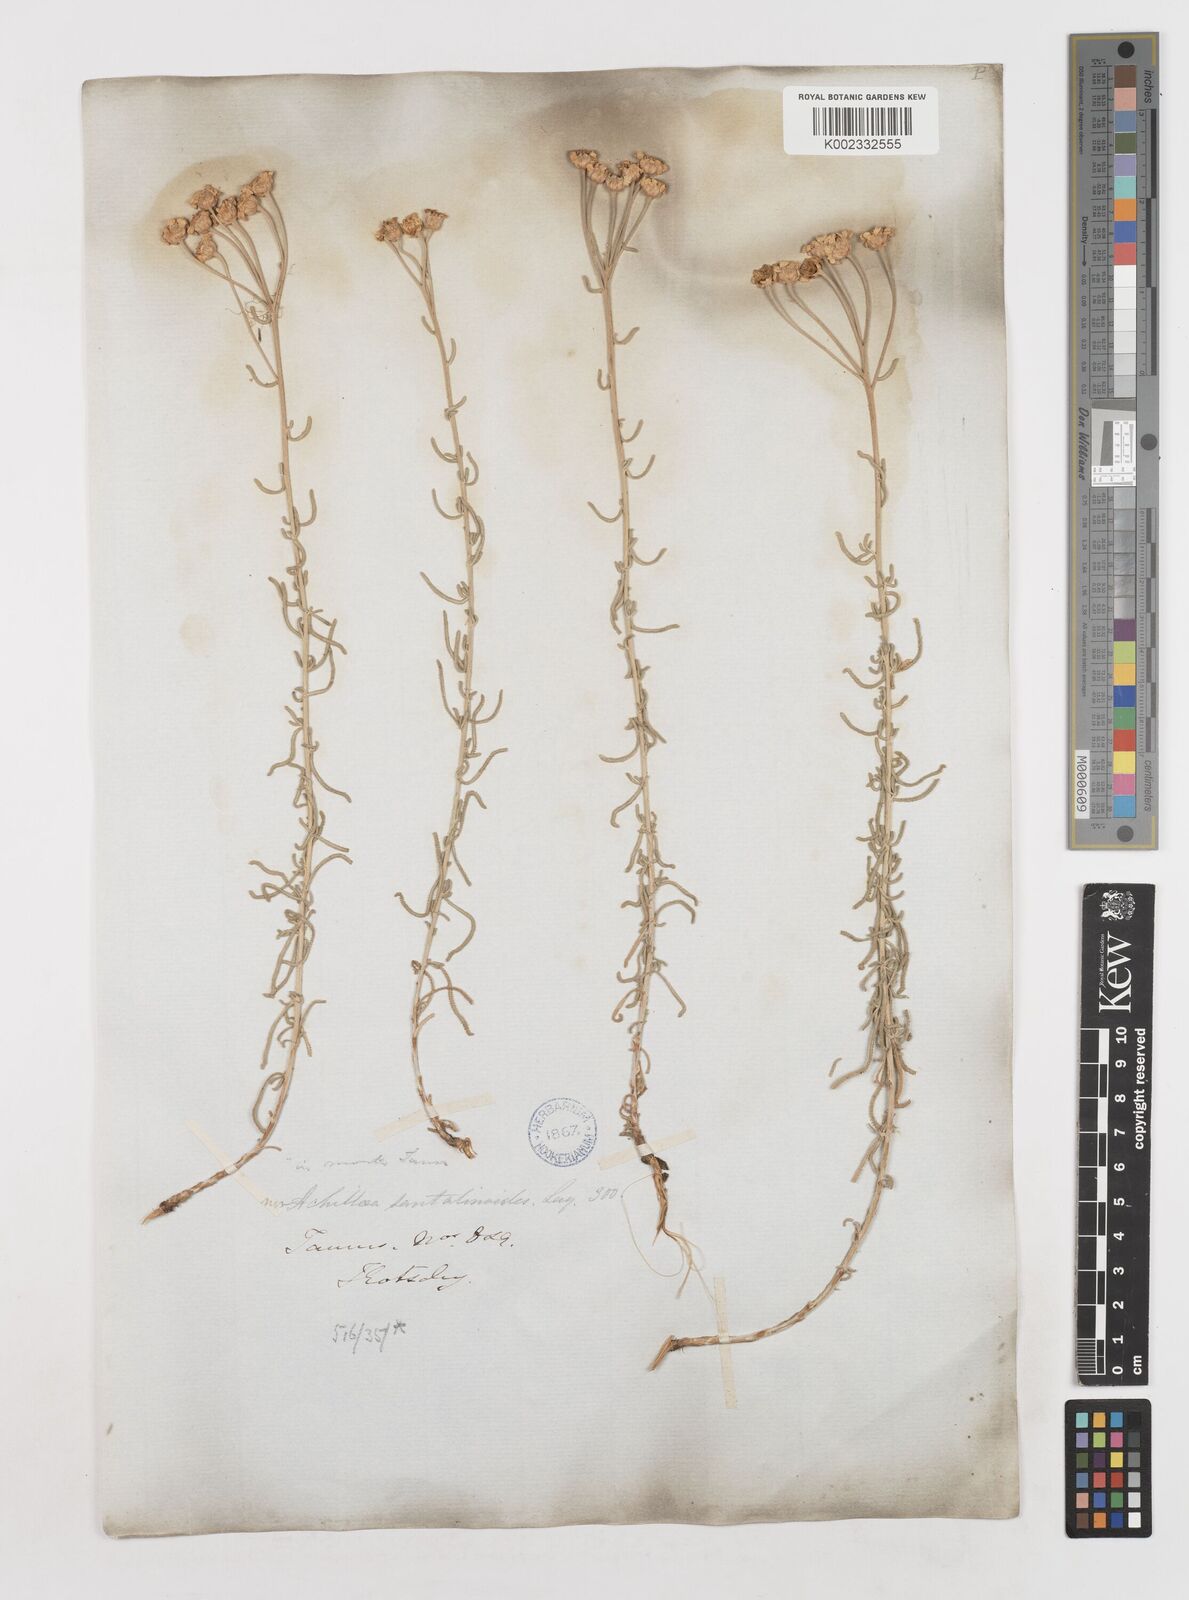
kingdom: Plantae
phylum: Tracheophyta
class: Magnoliopsida
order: Asterales
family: Asteraceae
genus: Achillea
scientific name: Achillea spinulifolia
